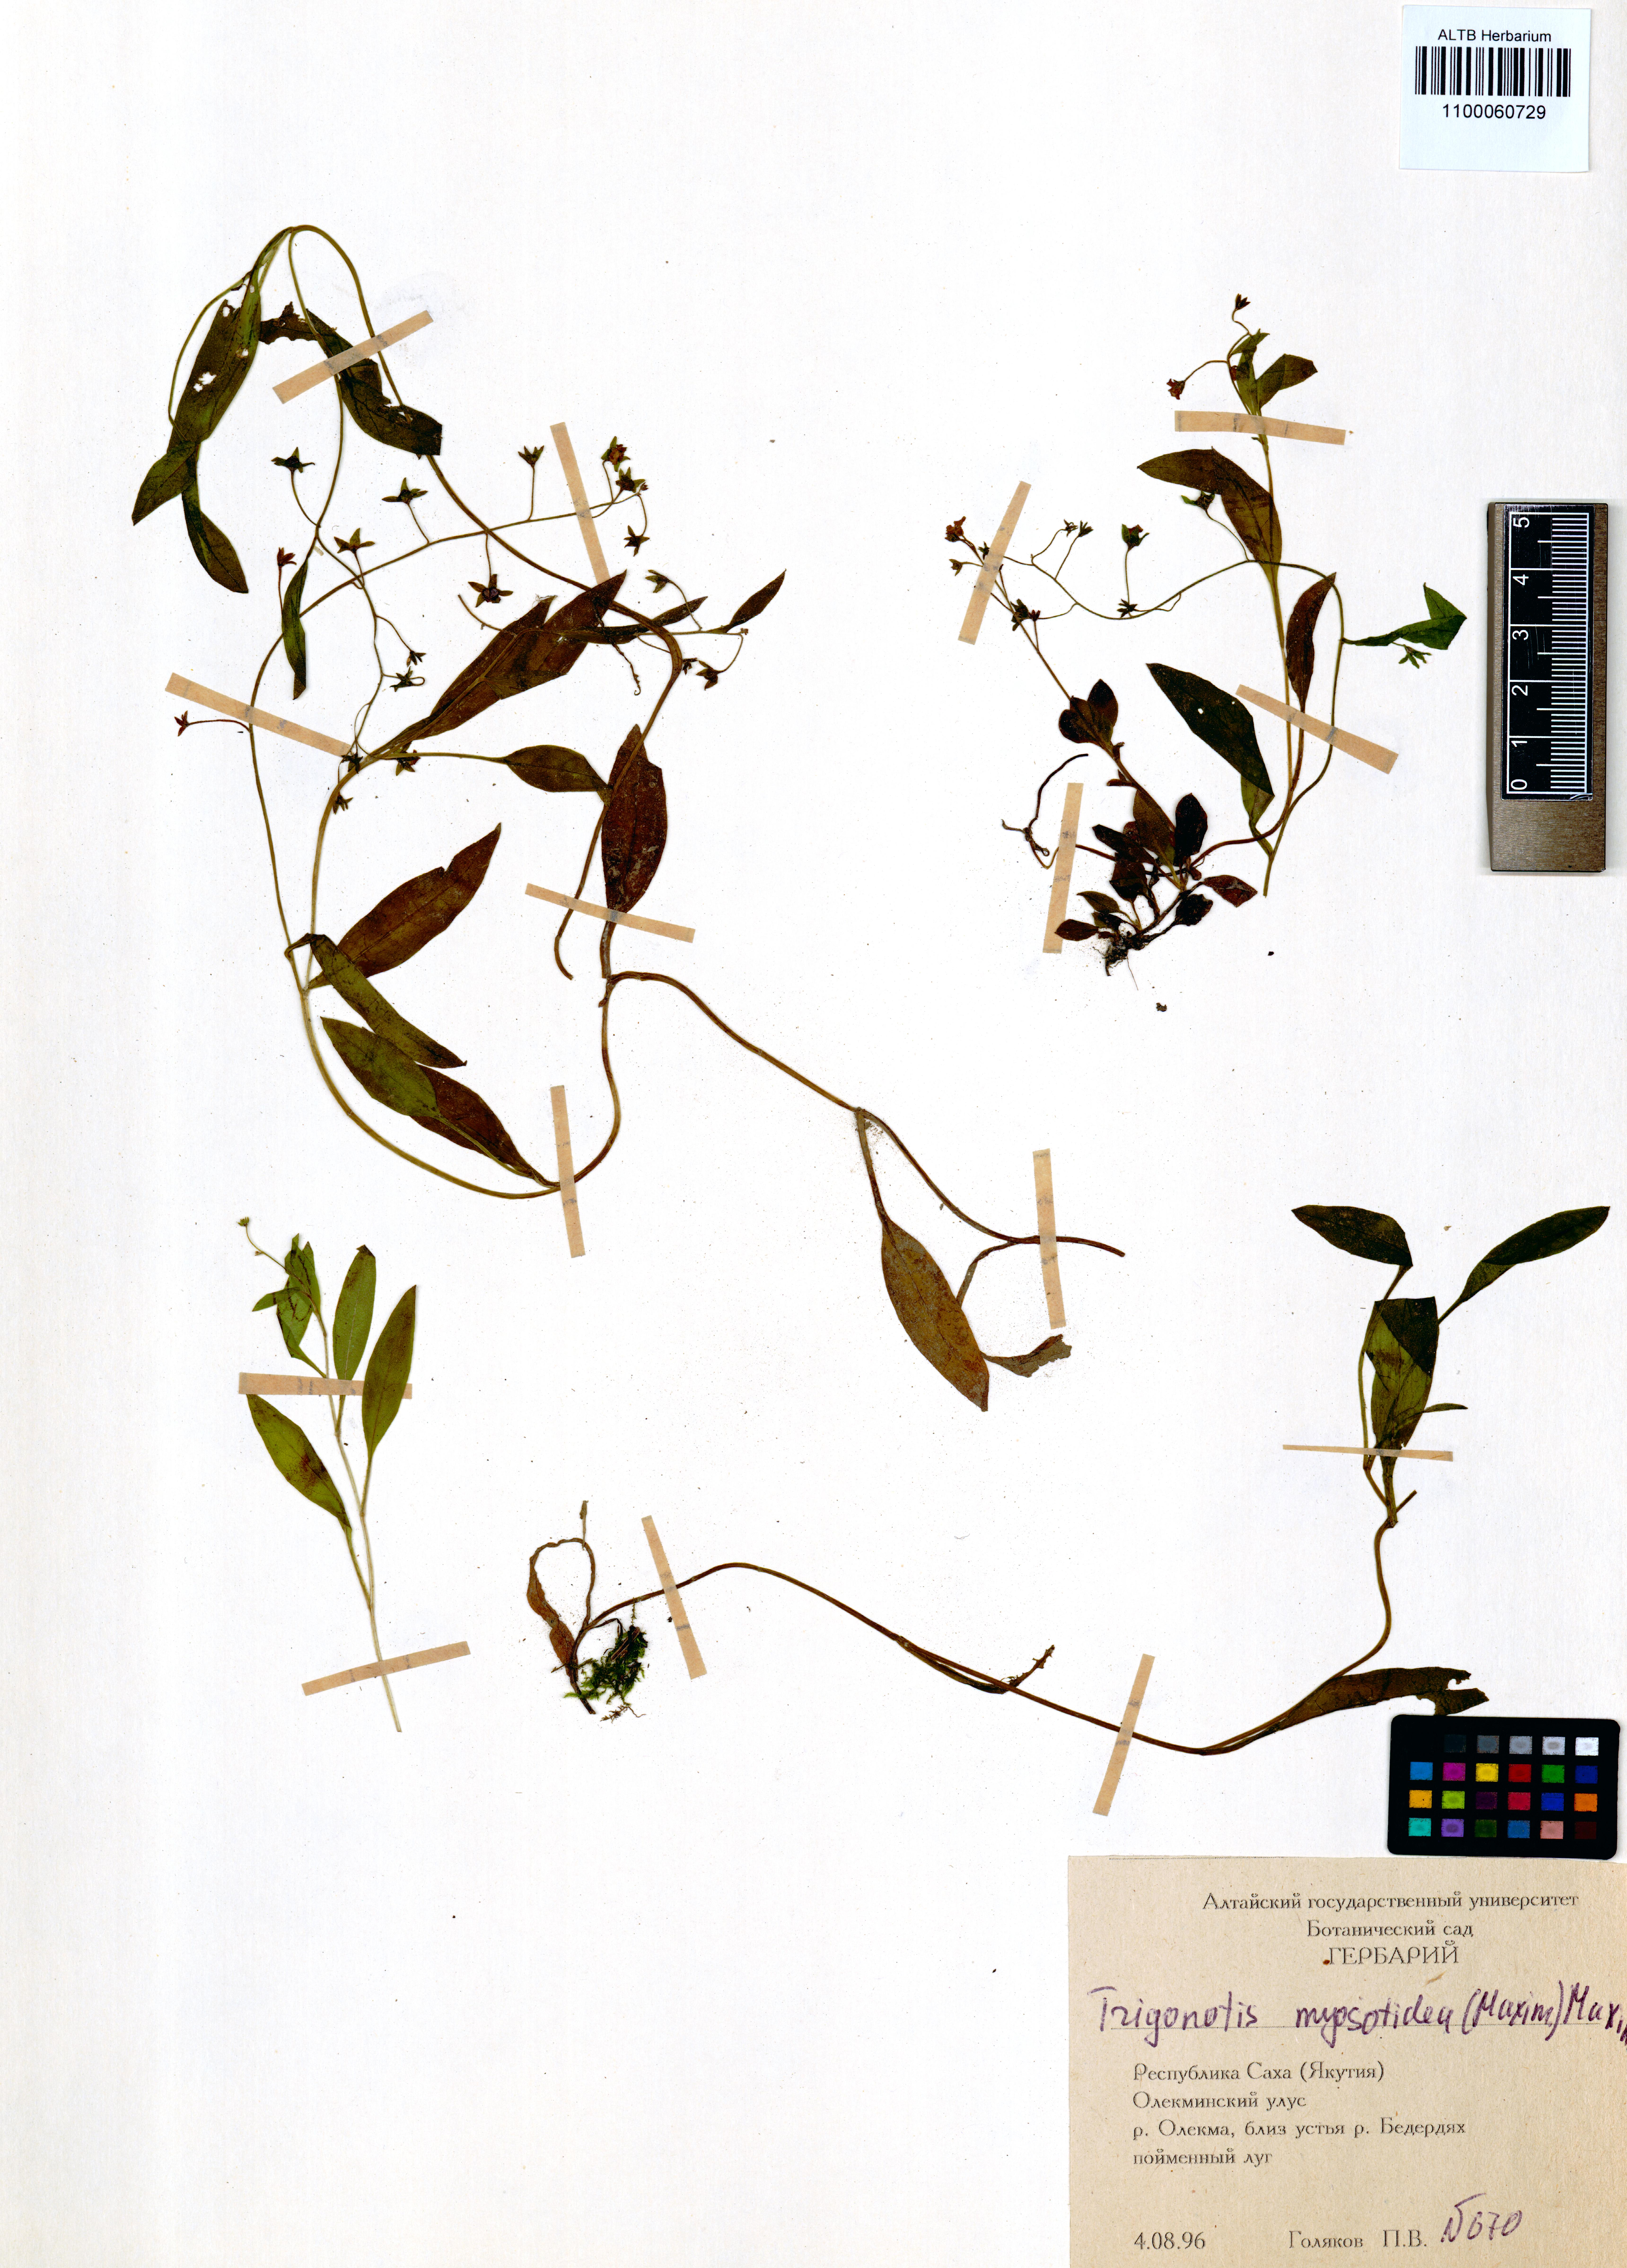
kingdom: Plantae
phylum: Tracheophyta
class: Magnoliopsida
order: Boraginales
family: Boraginaceae
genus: Trigonotis
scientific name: Trigonotis myosotidea
